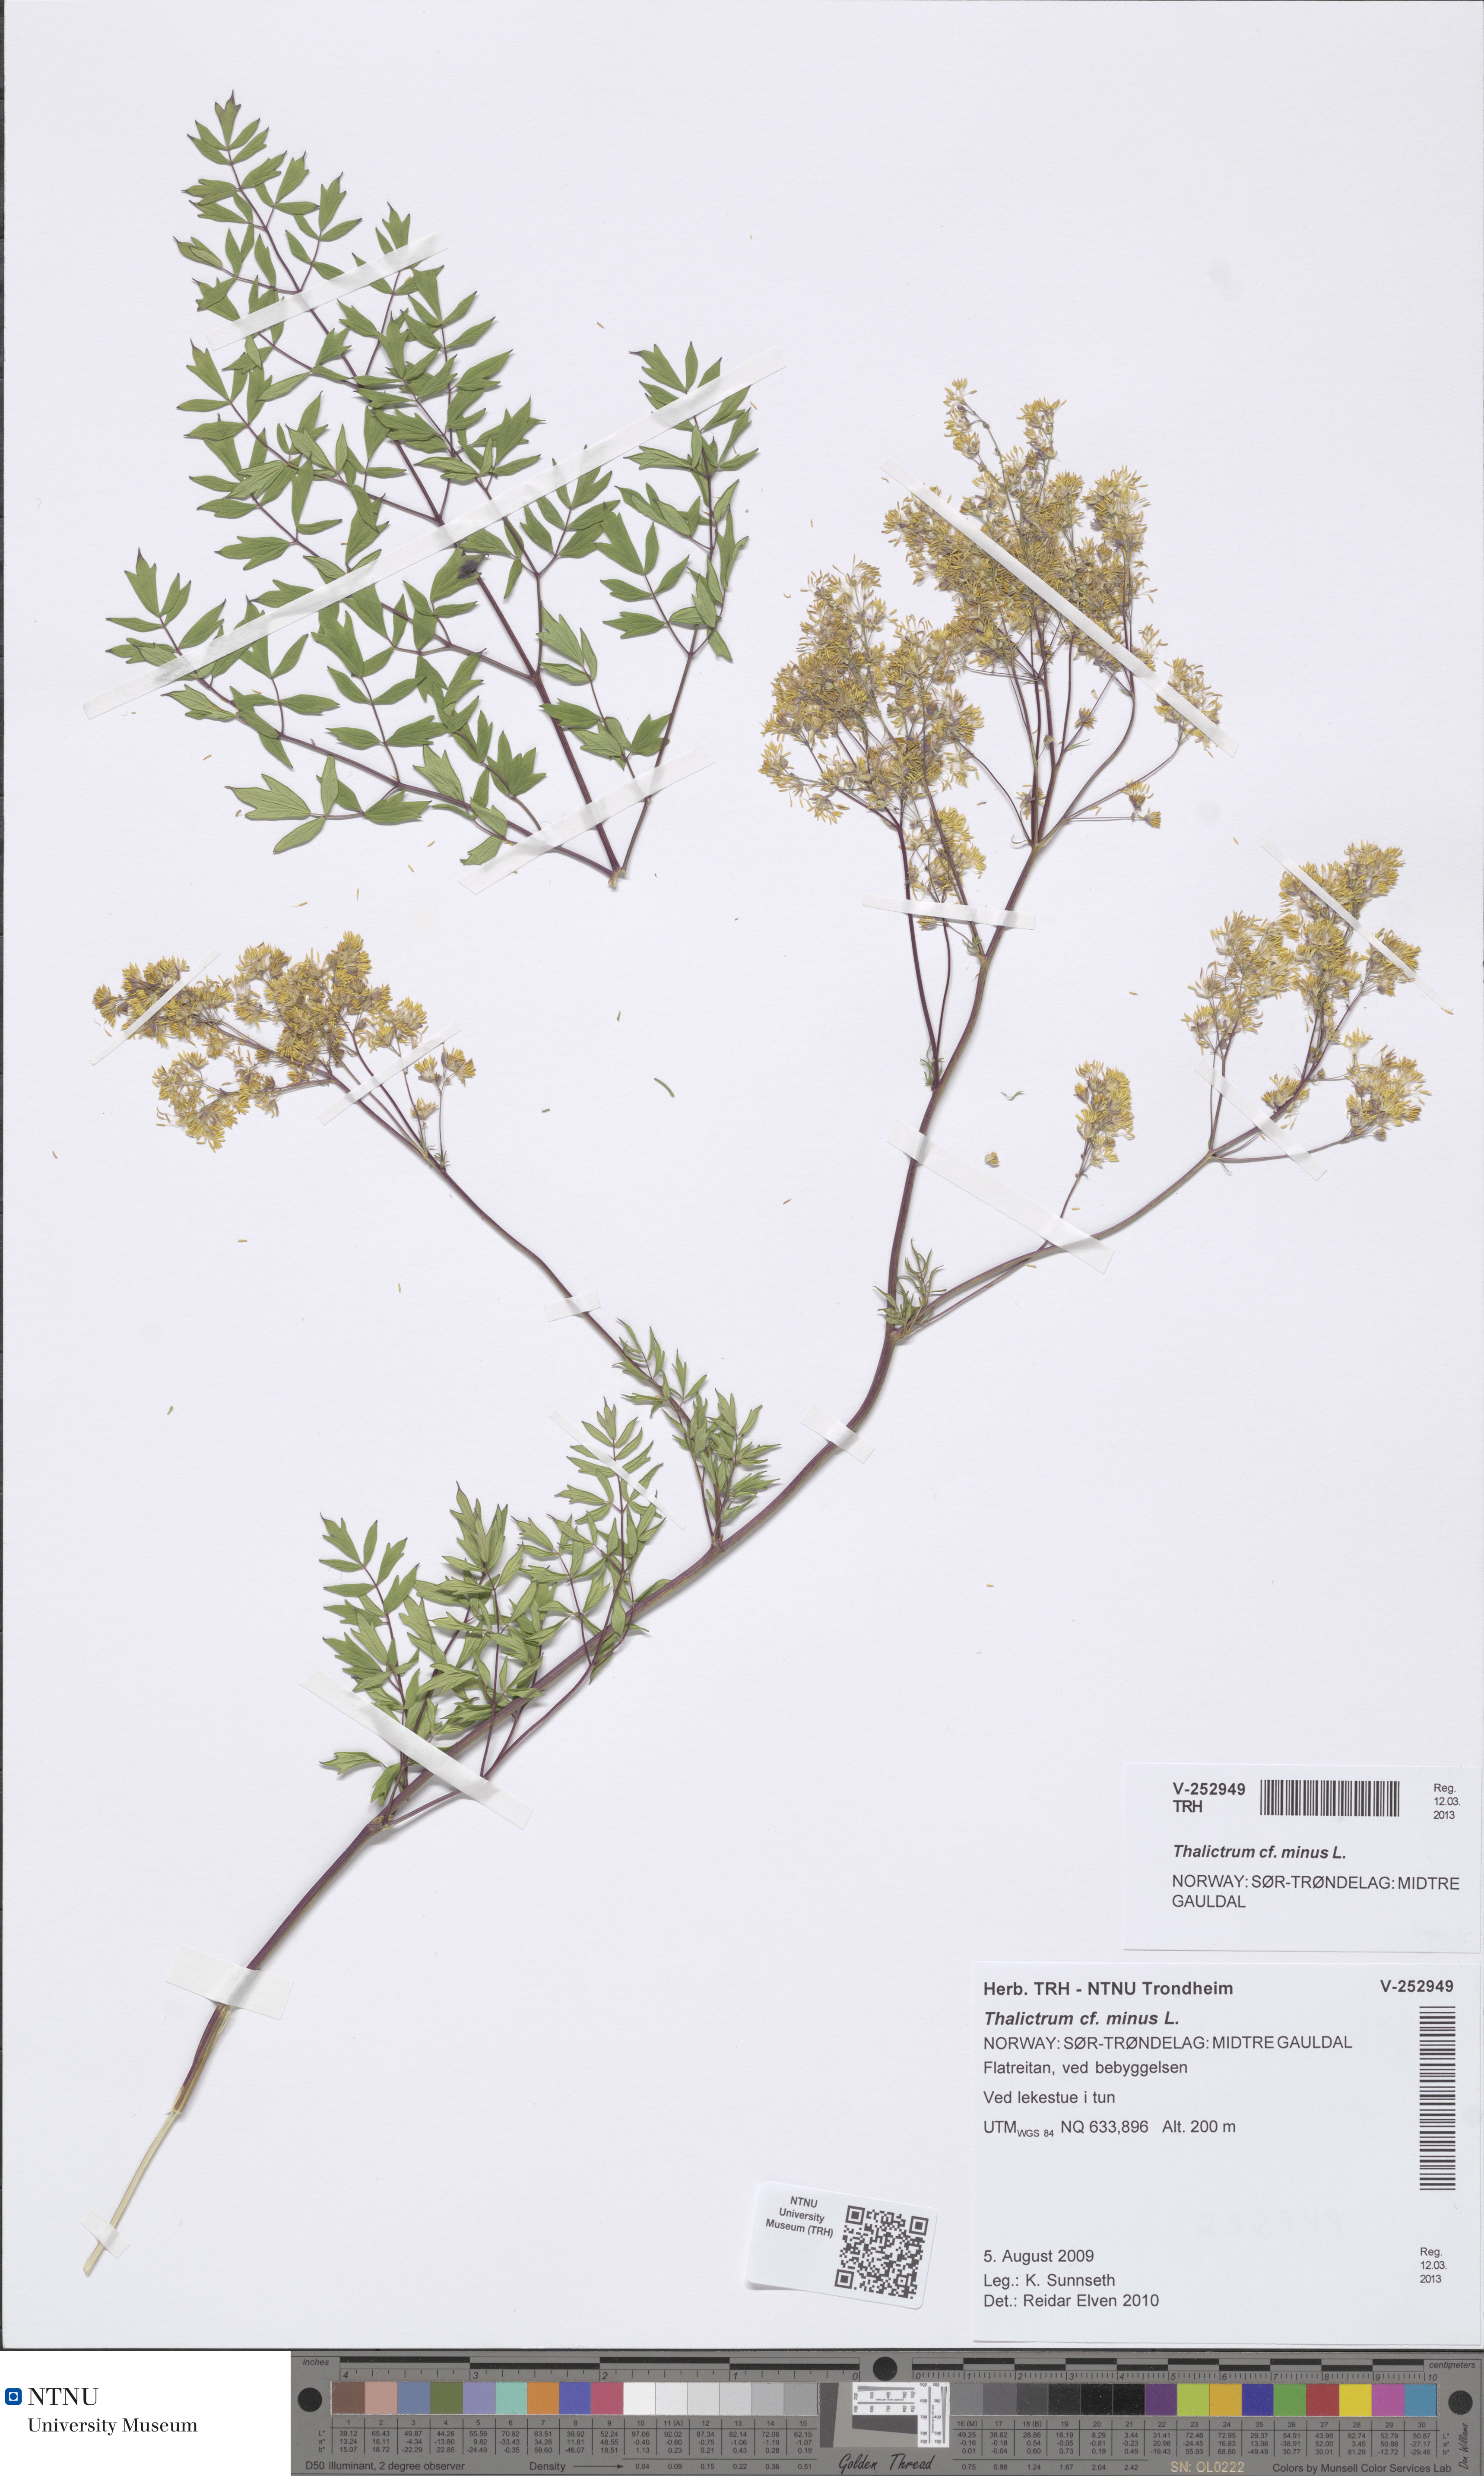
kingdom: Plantae
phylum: Tracheophyta
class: Magnoliopsida
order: Ranunculales
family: Ranunculaceae
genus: Thalictrum
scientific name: Thalictrum minus
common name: Lesser meadow-rue
